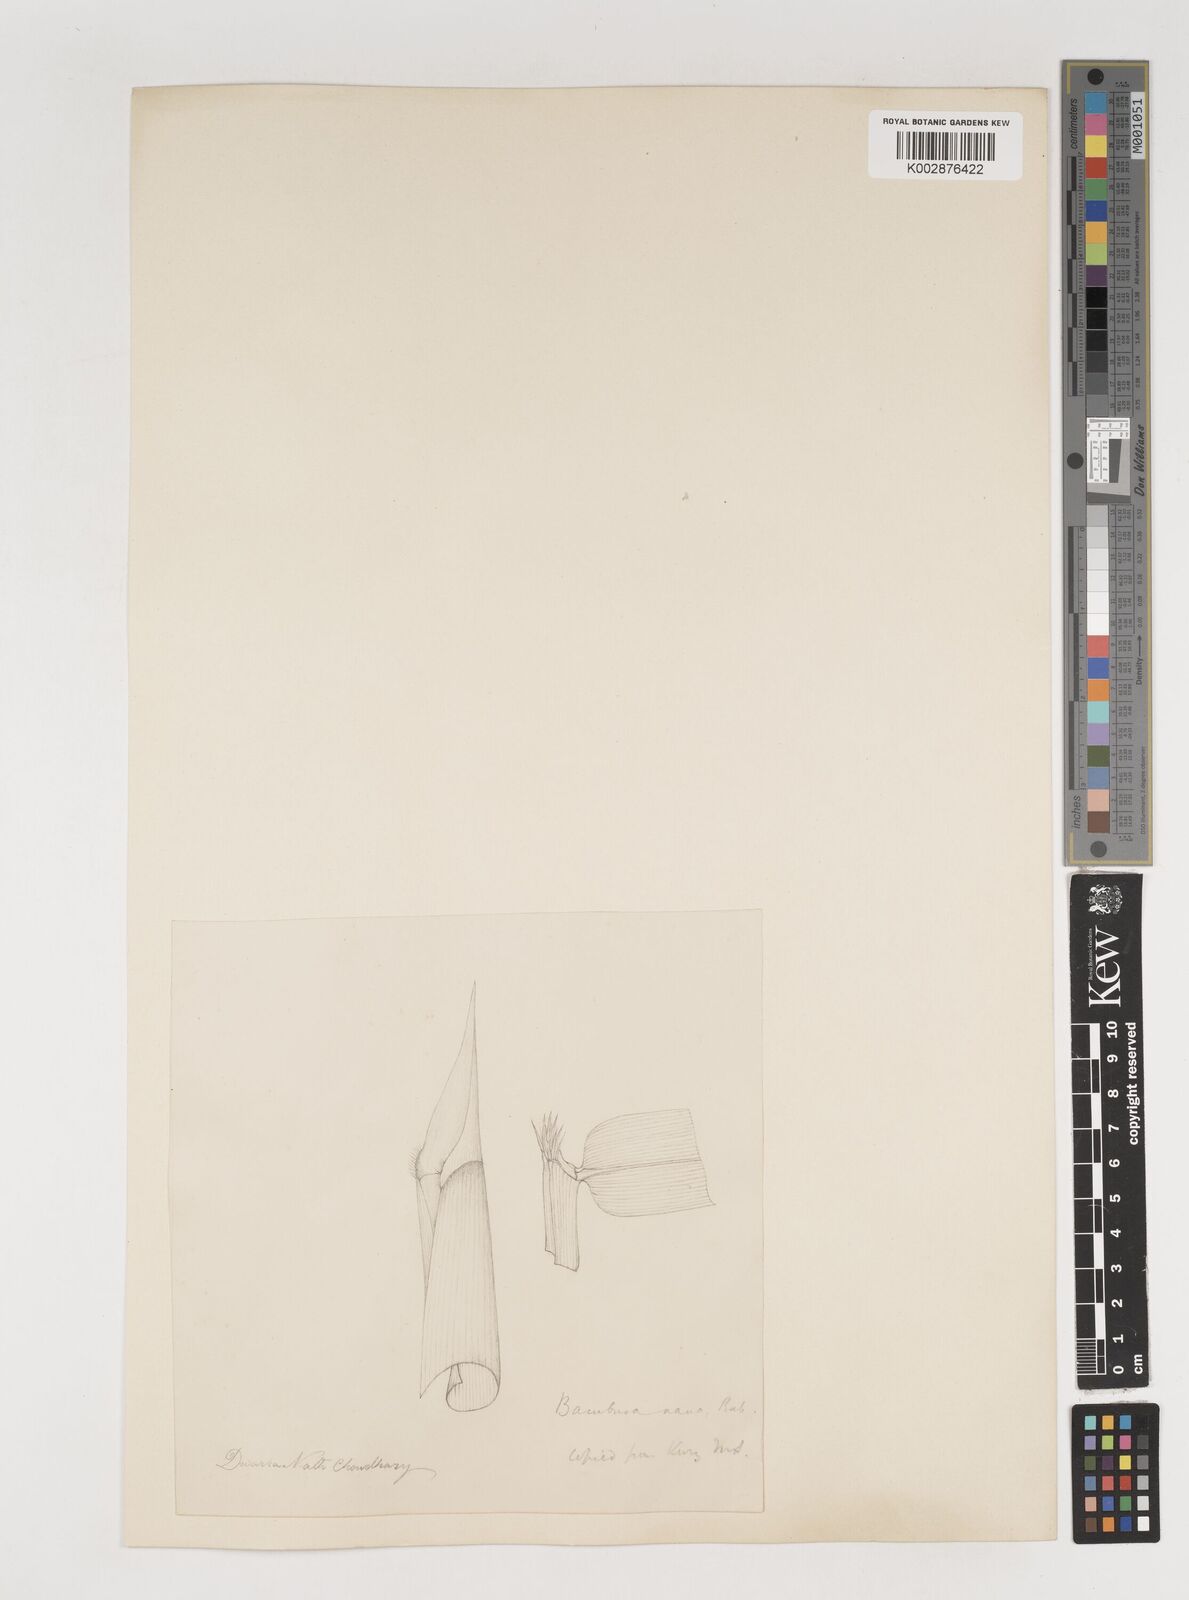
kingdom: Plantae
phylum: Tracheophyta
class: Liliopsida
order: Poales
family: Poaceae
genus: Bambusa
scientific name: Bambusa multiplex
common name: Hedge bamboo
